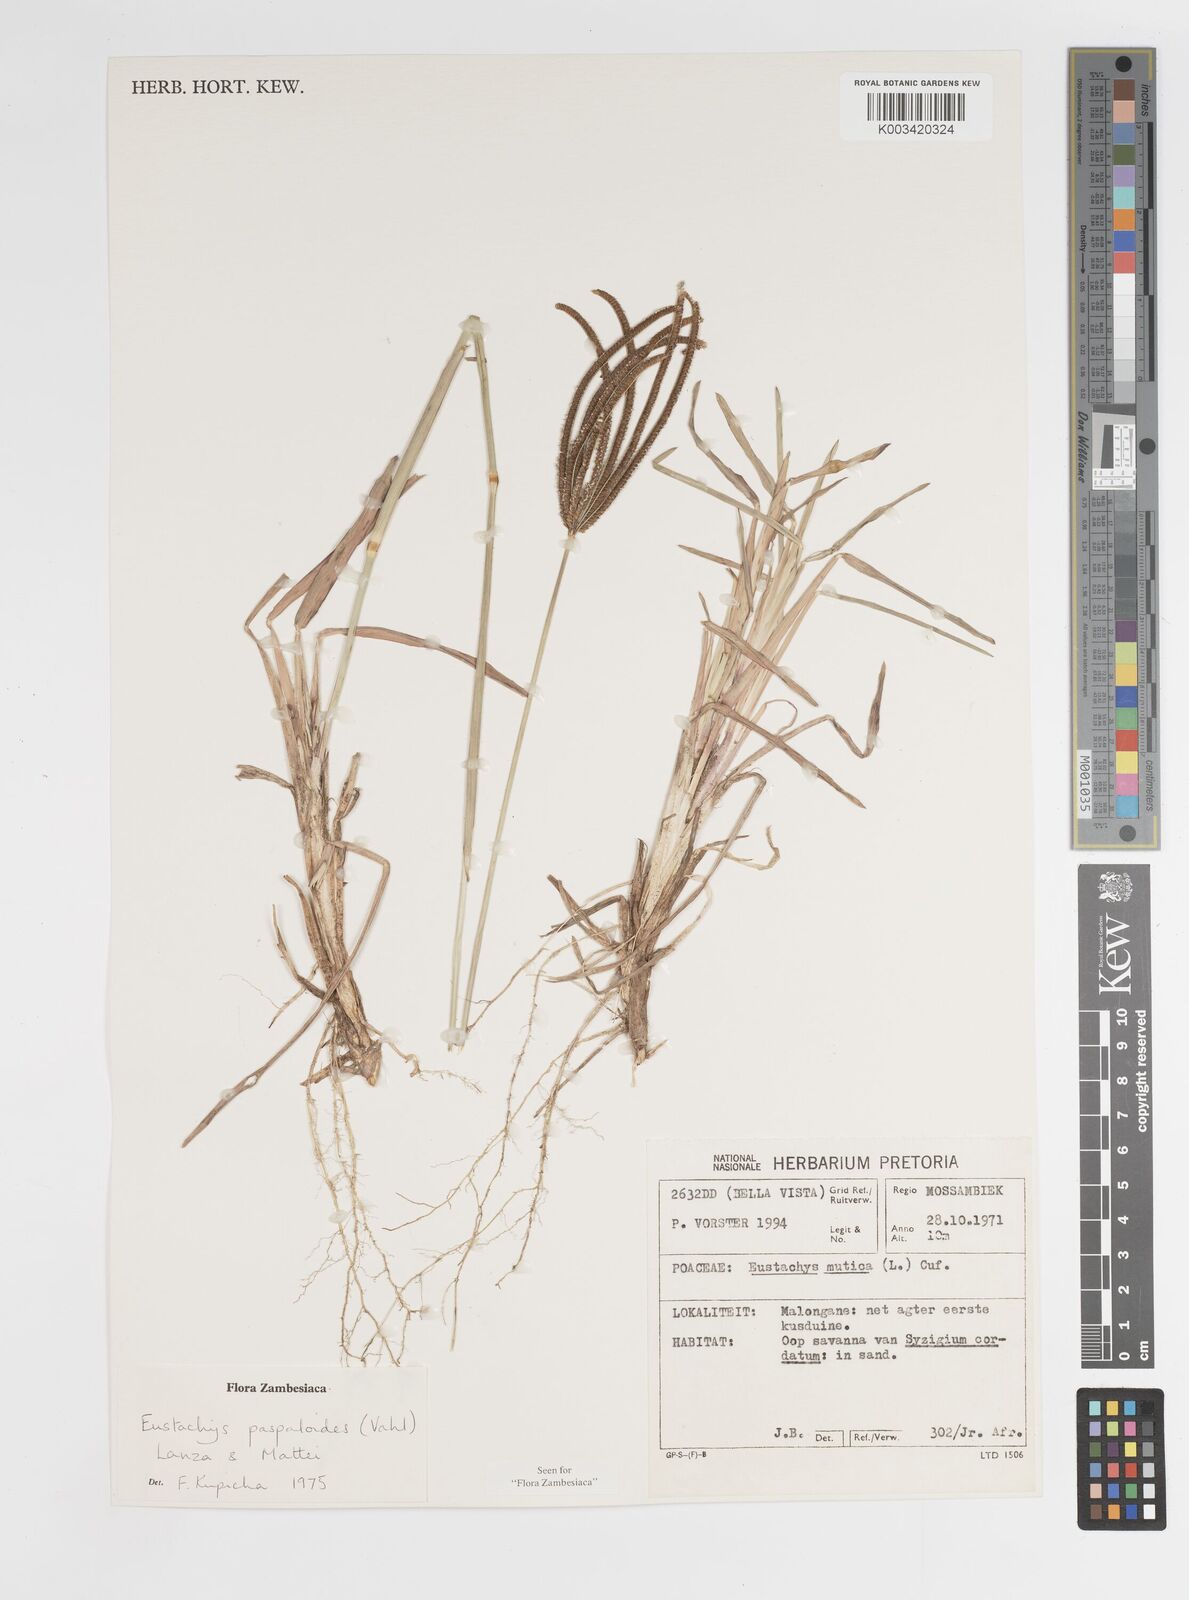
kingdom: Plantae
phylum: Tracheophyta
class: Liliopsida
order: Poales
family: Poaceae
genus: Eustachys
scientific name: Eustachys paspaloides
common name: Caribbean fingergrass
